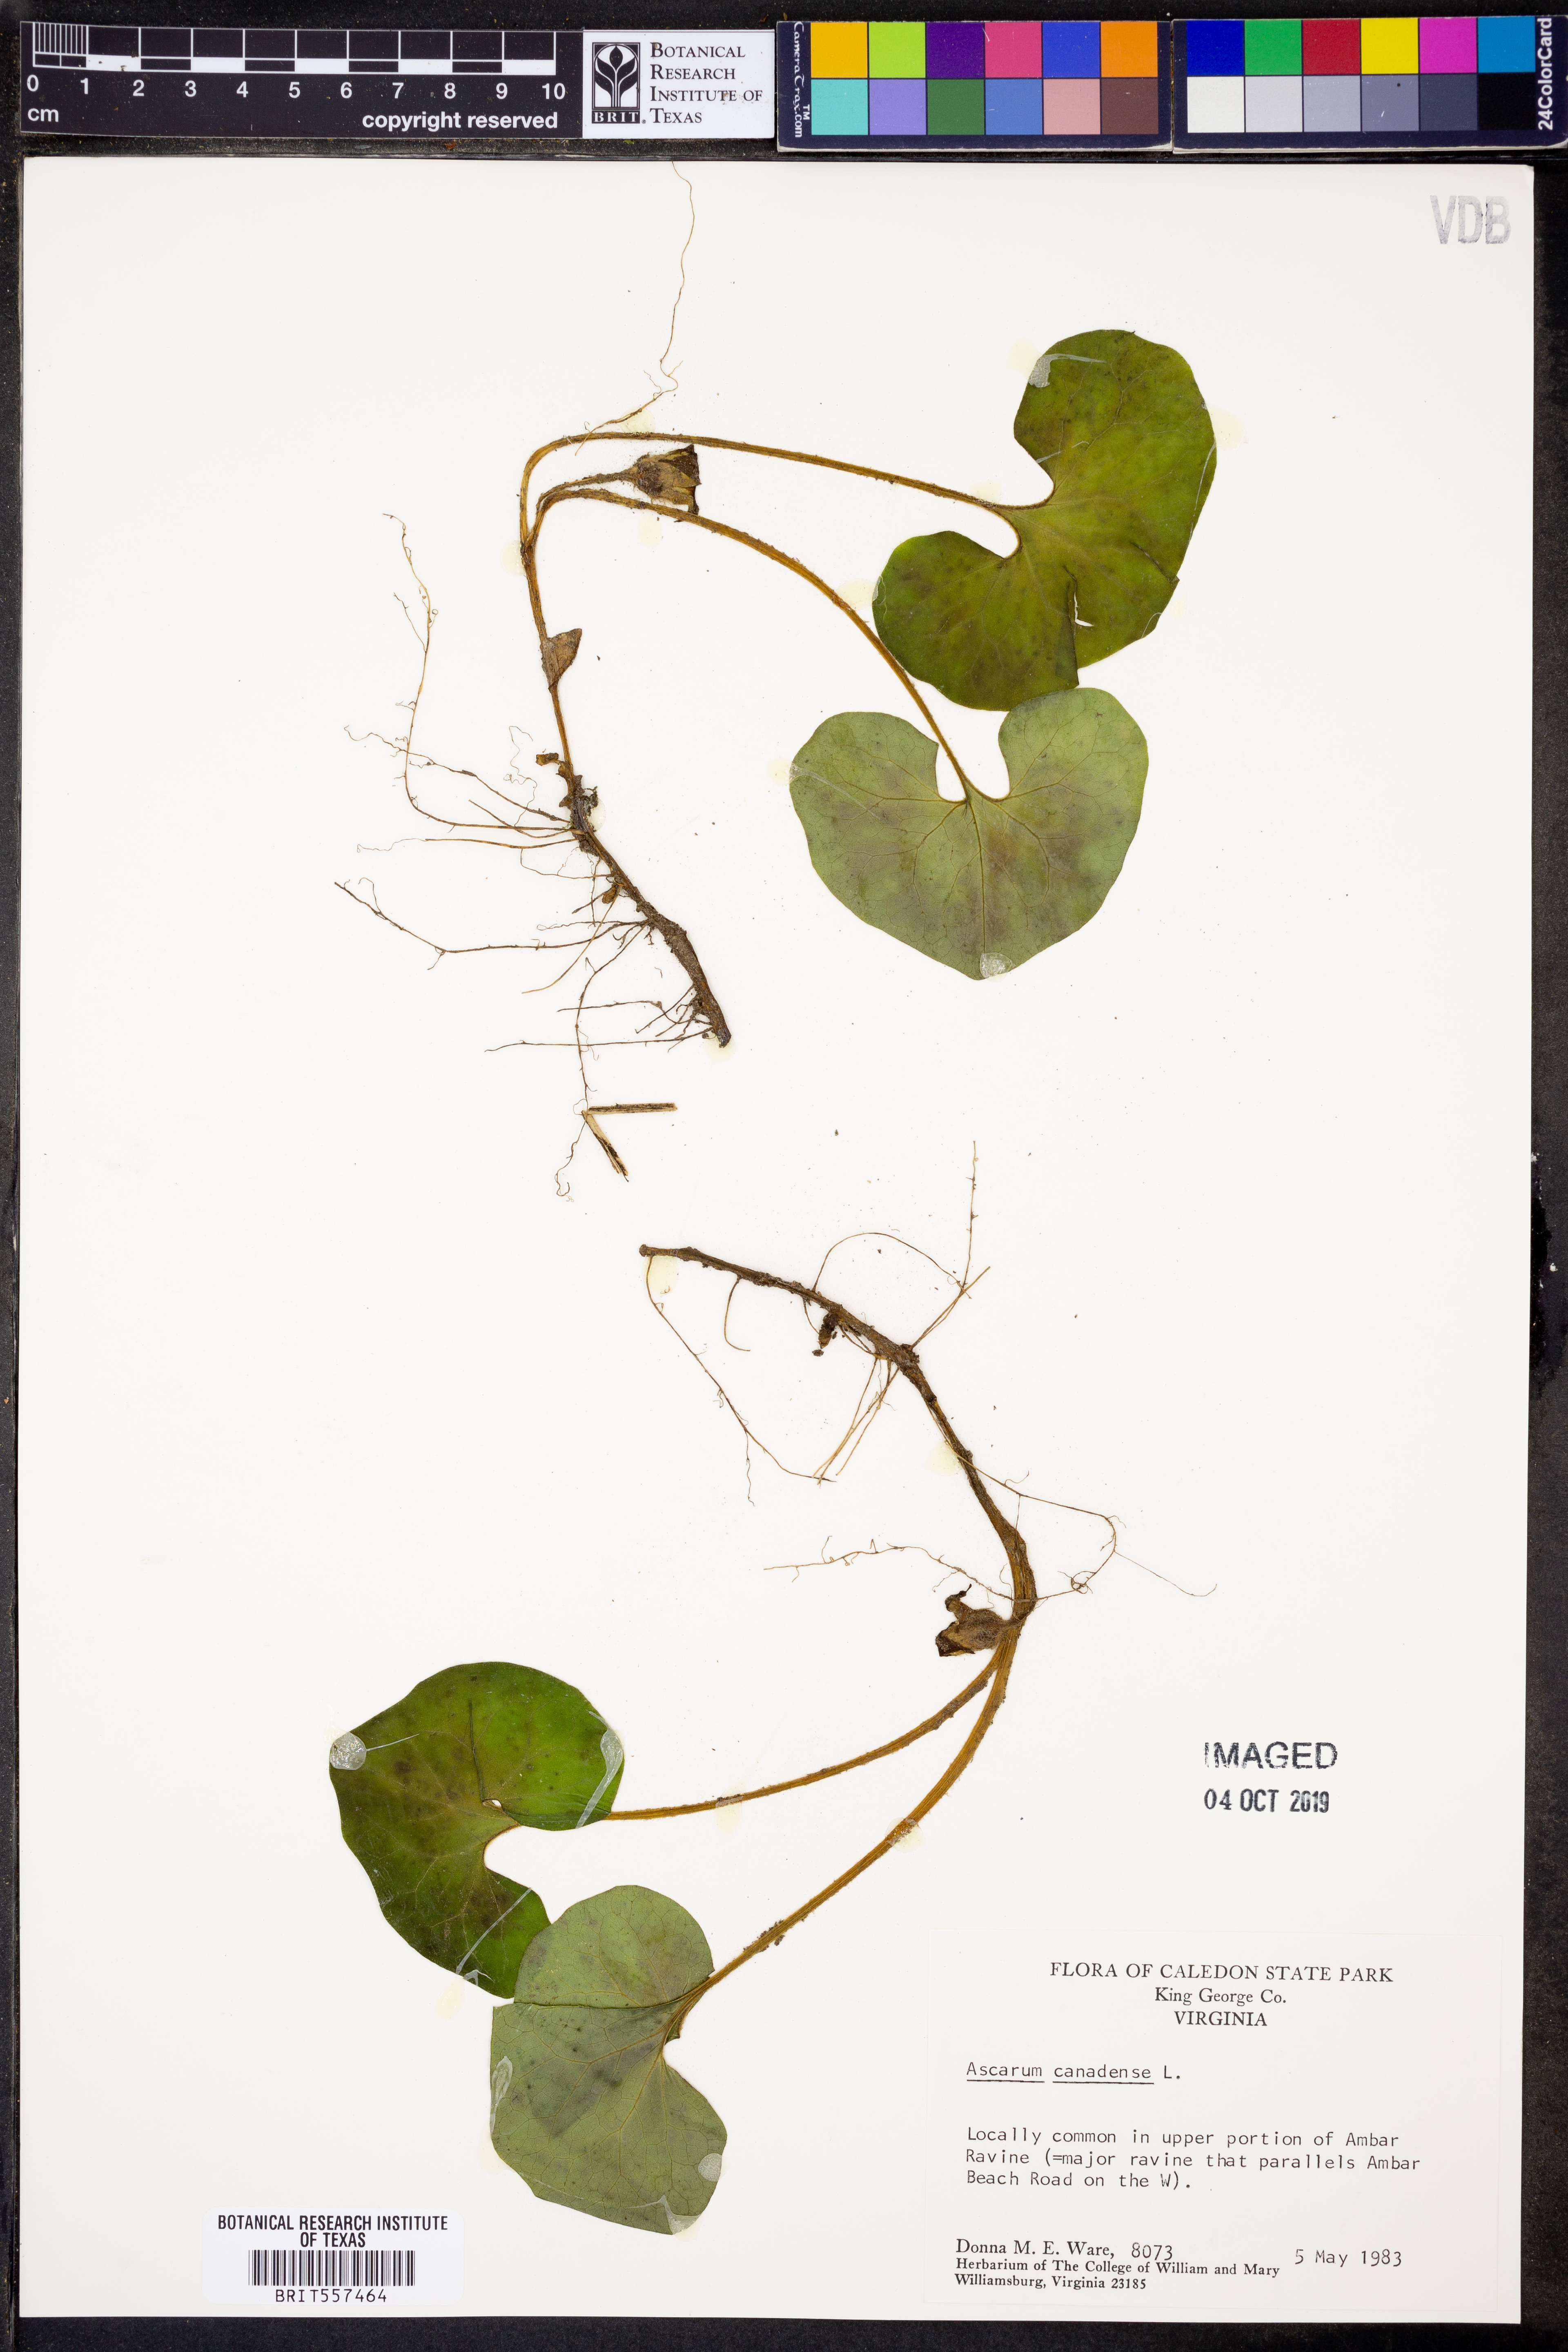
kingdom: Plantae
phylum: Tracheophyta
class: Magnoliopsida
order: Piperales
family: Aristolochiaceae
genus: Asarum
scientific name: Asarum canadense
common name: Wild ginger
